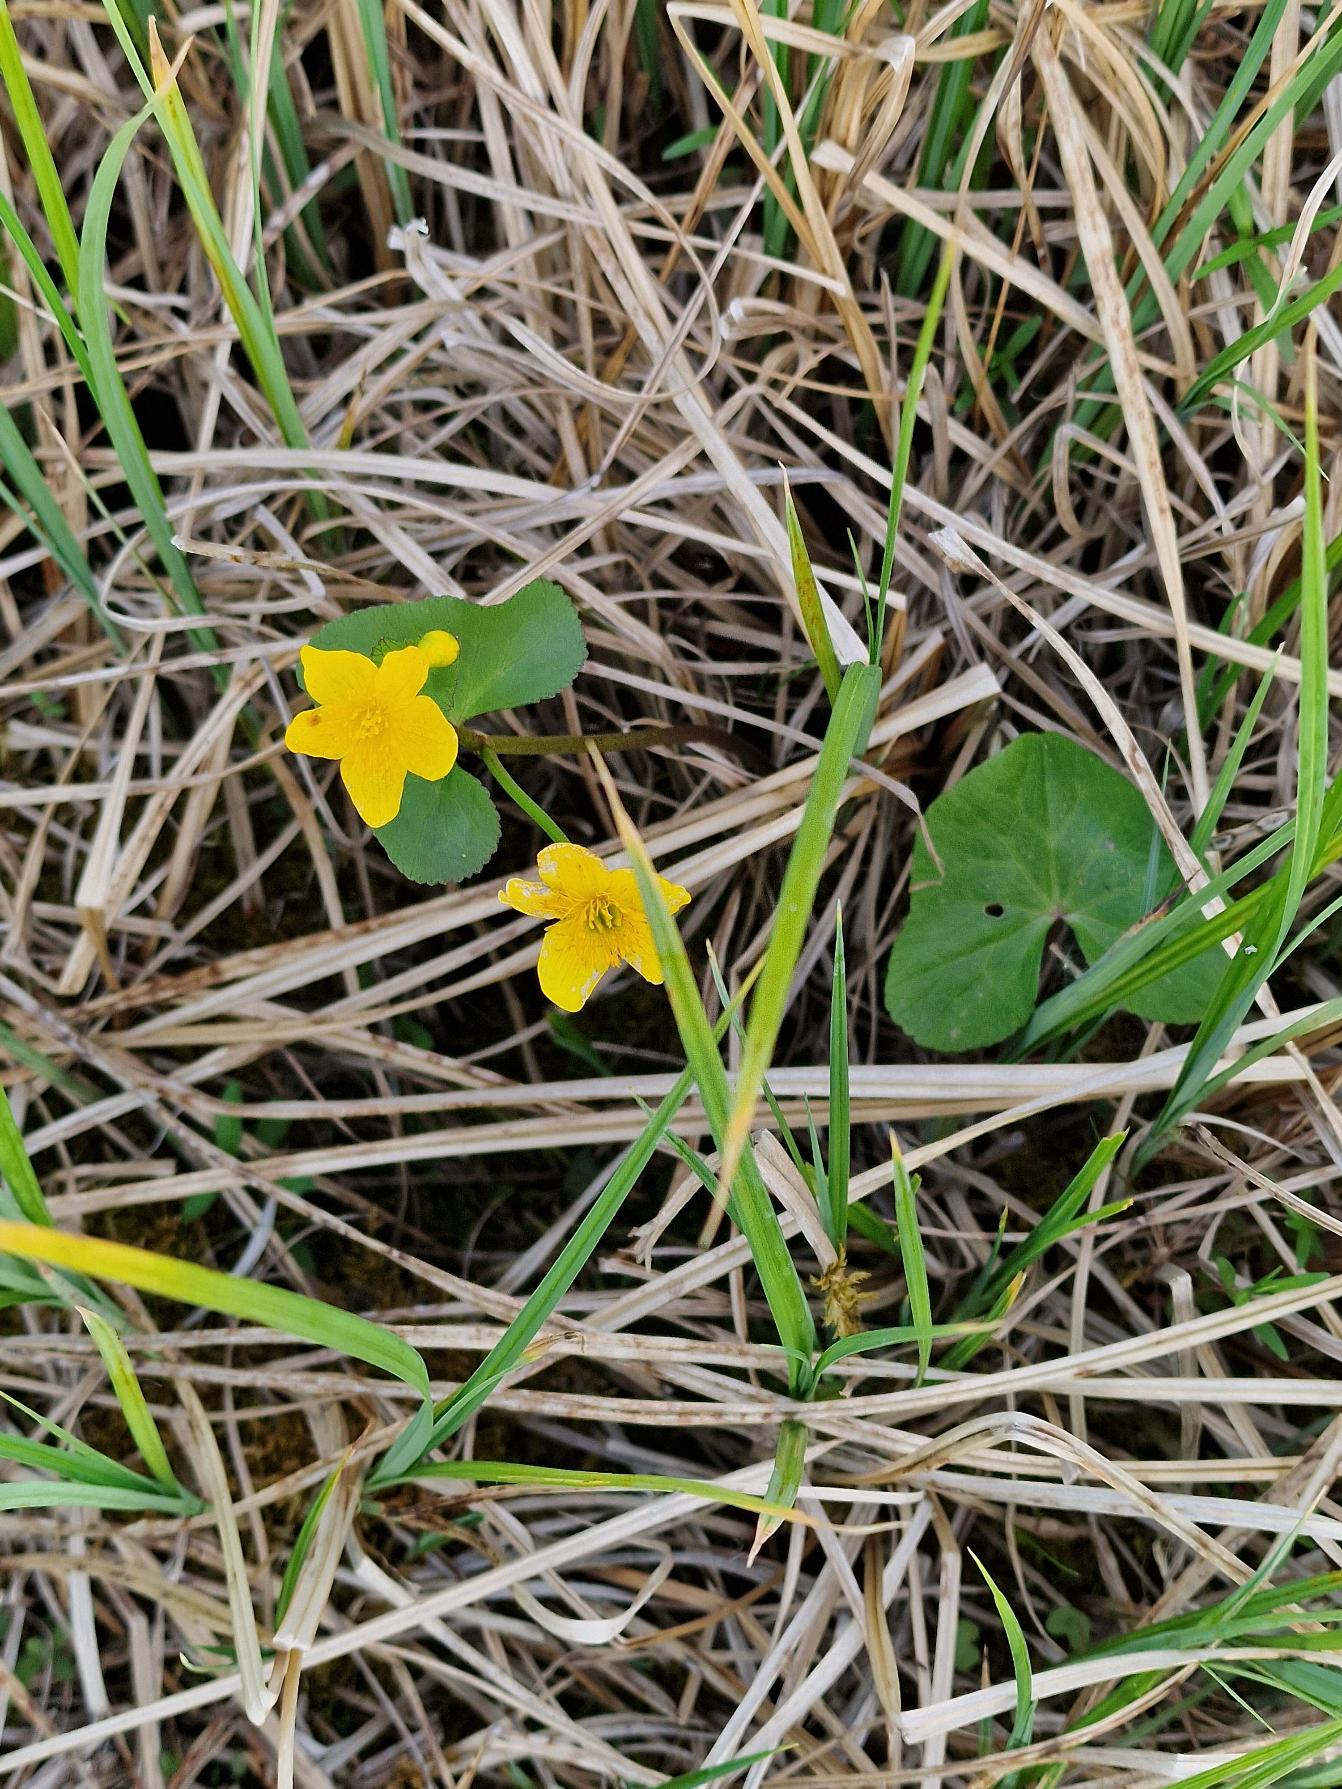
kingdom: Plantae
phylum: Tracheophyta
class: Magnoliopsida
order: Ranunculales
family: Ranunculaceae
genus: Caltha
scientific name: Caltha palustris
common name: Eng-kabbeleje
